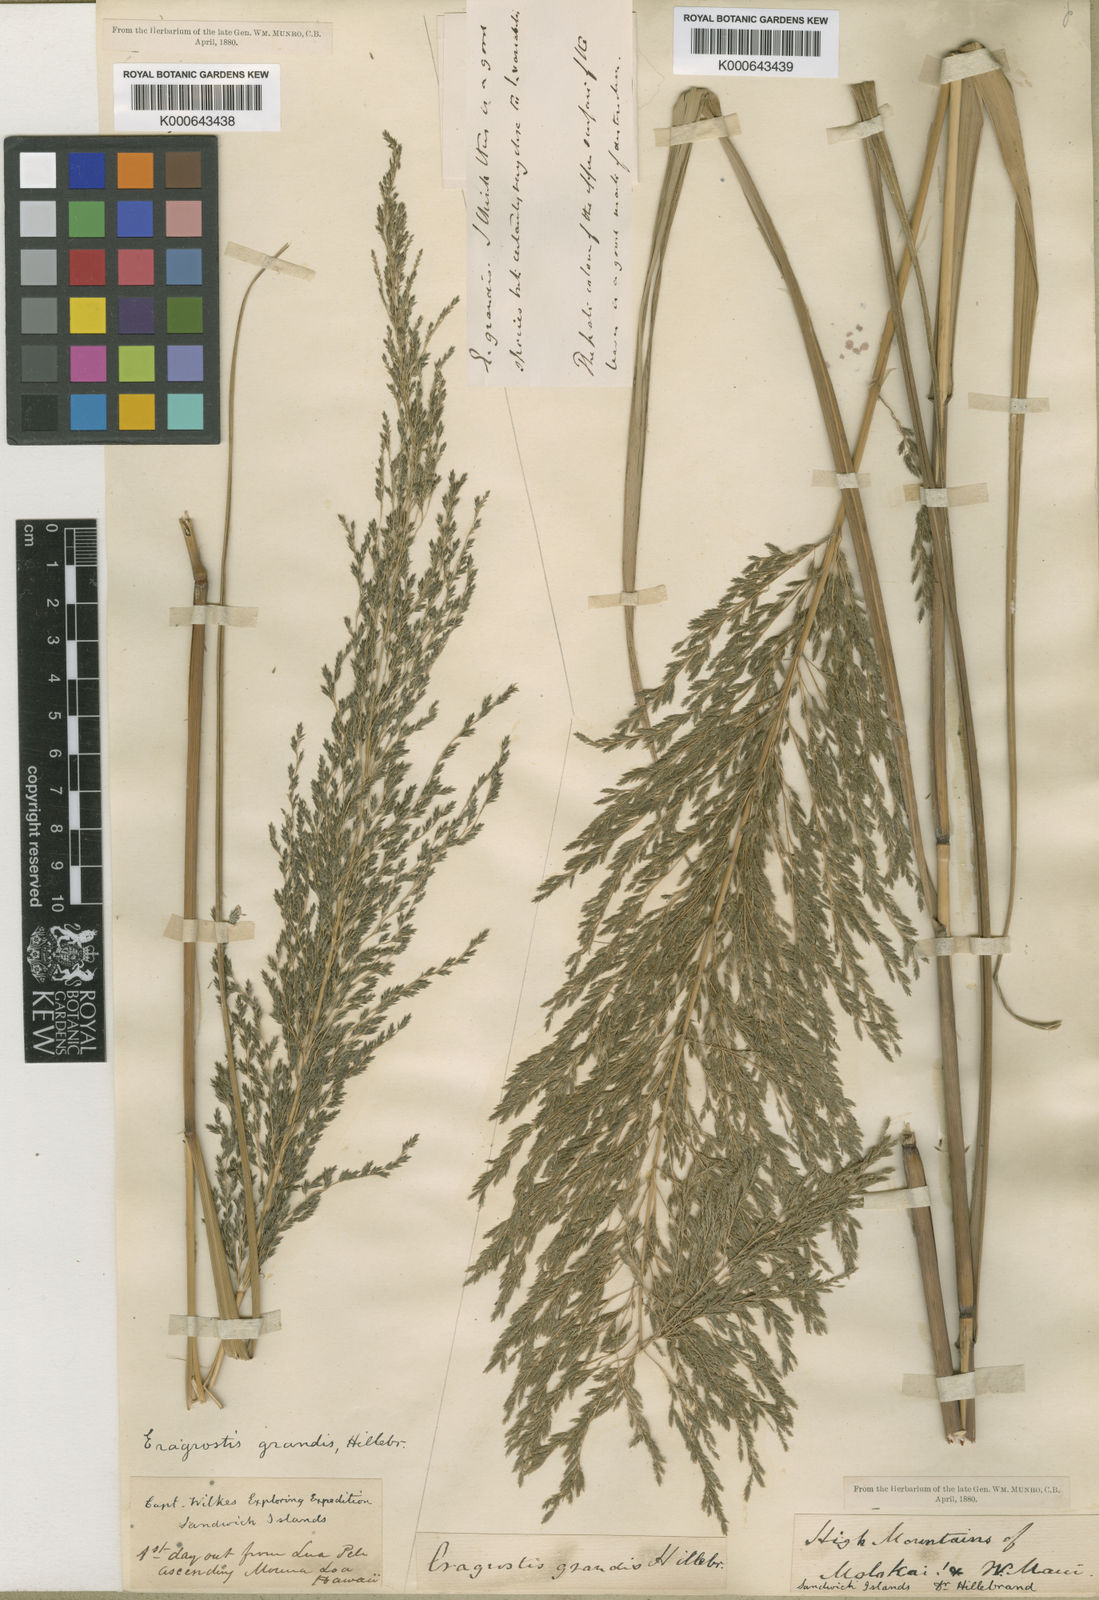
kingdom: Plantae
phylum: Tracheophyta
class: Liliopsida
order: Poales
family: Poaceae
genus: Eragrostis
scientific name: Eragrostis grandis
